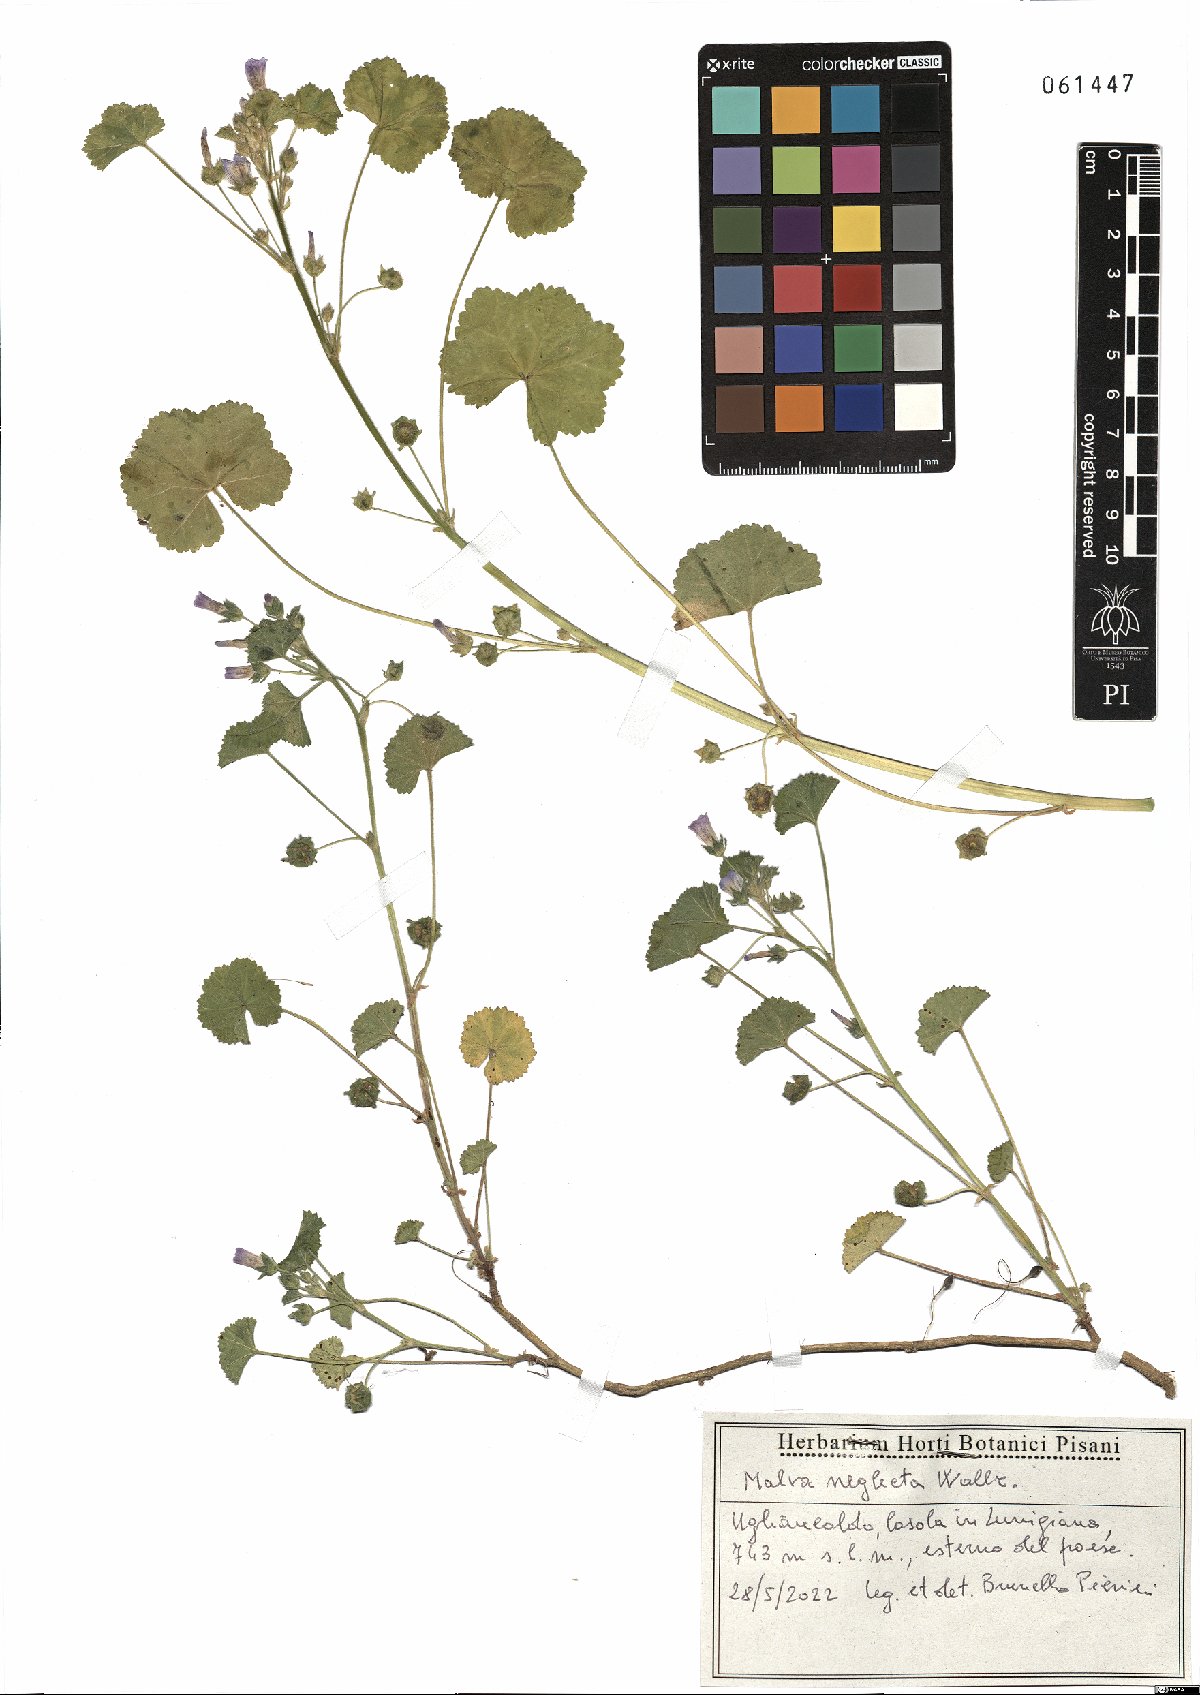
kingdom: Plantae
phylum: Tracheophyta
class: Magnoliopsida
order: Malvales
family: Malvaceae
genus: Malva
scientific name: Malva neglecta
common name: Common mallow
